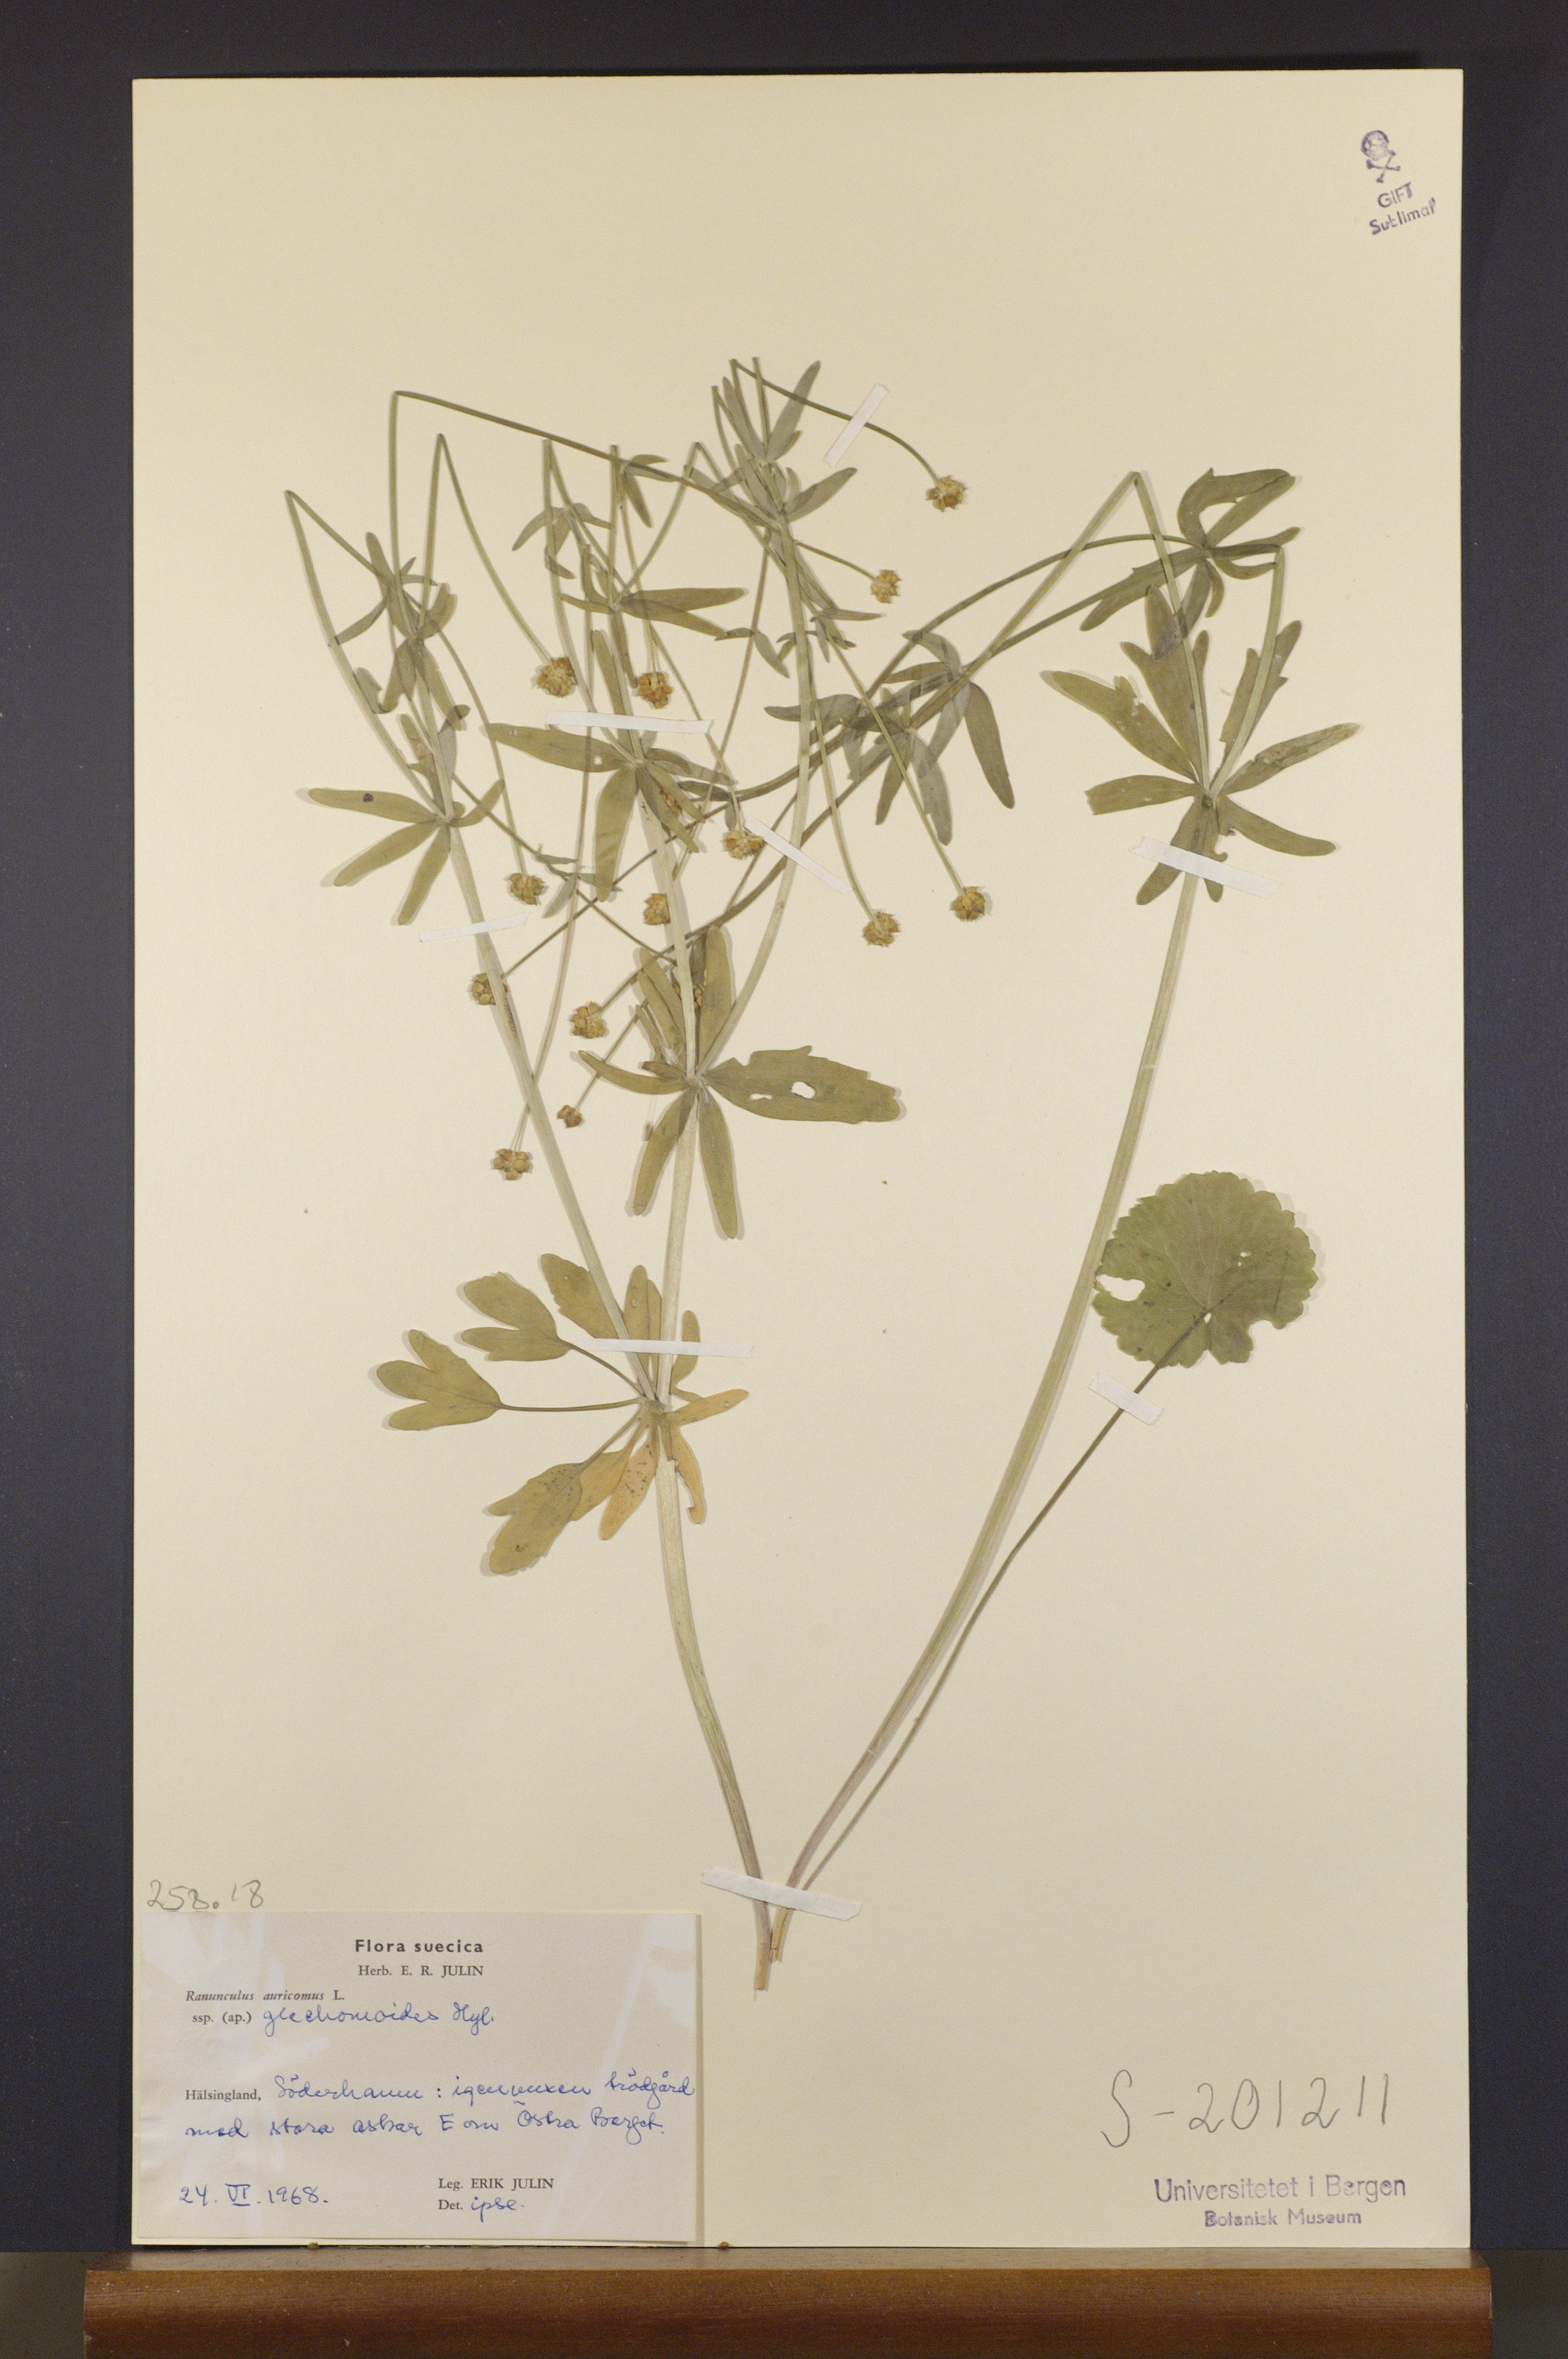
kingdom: Plantae
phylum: Tracheophyta
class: Magnoliopsida
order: Ranunculales
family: Ranunculaceae
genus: Ranunculus
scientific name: Ranunculus glechomoides
